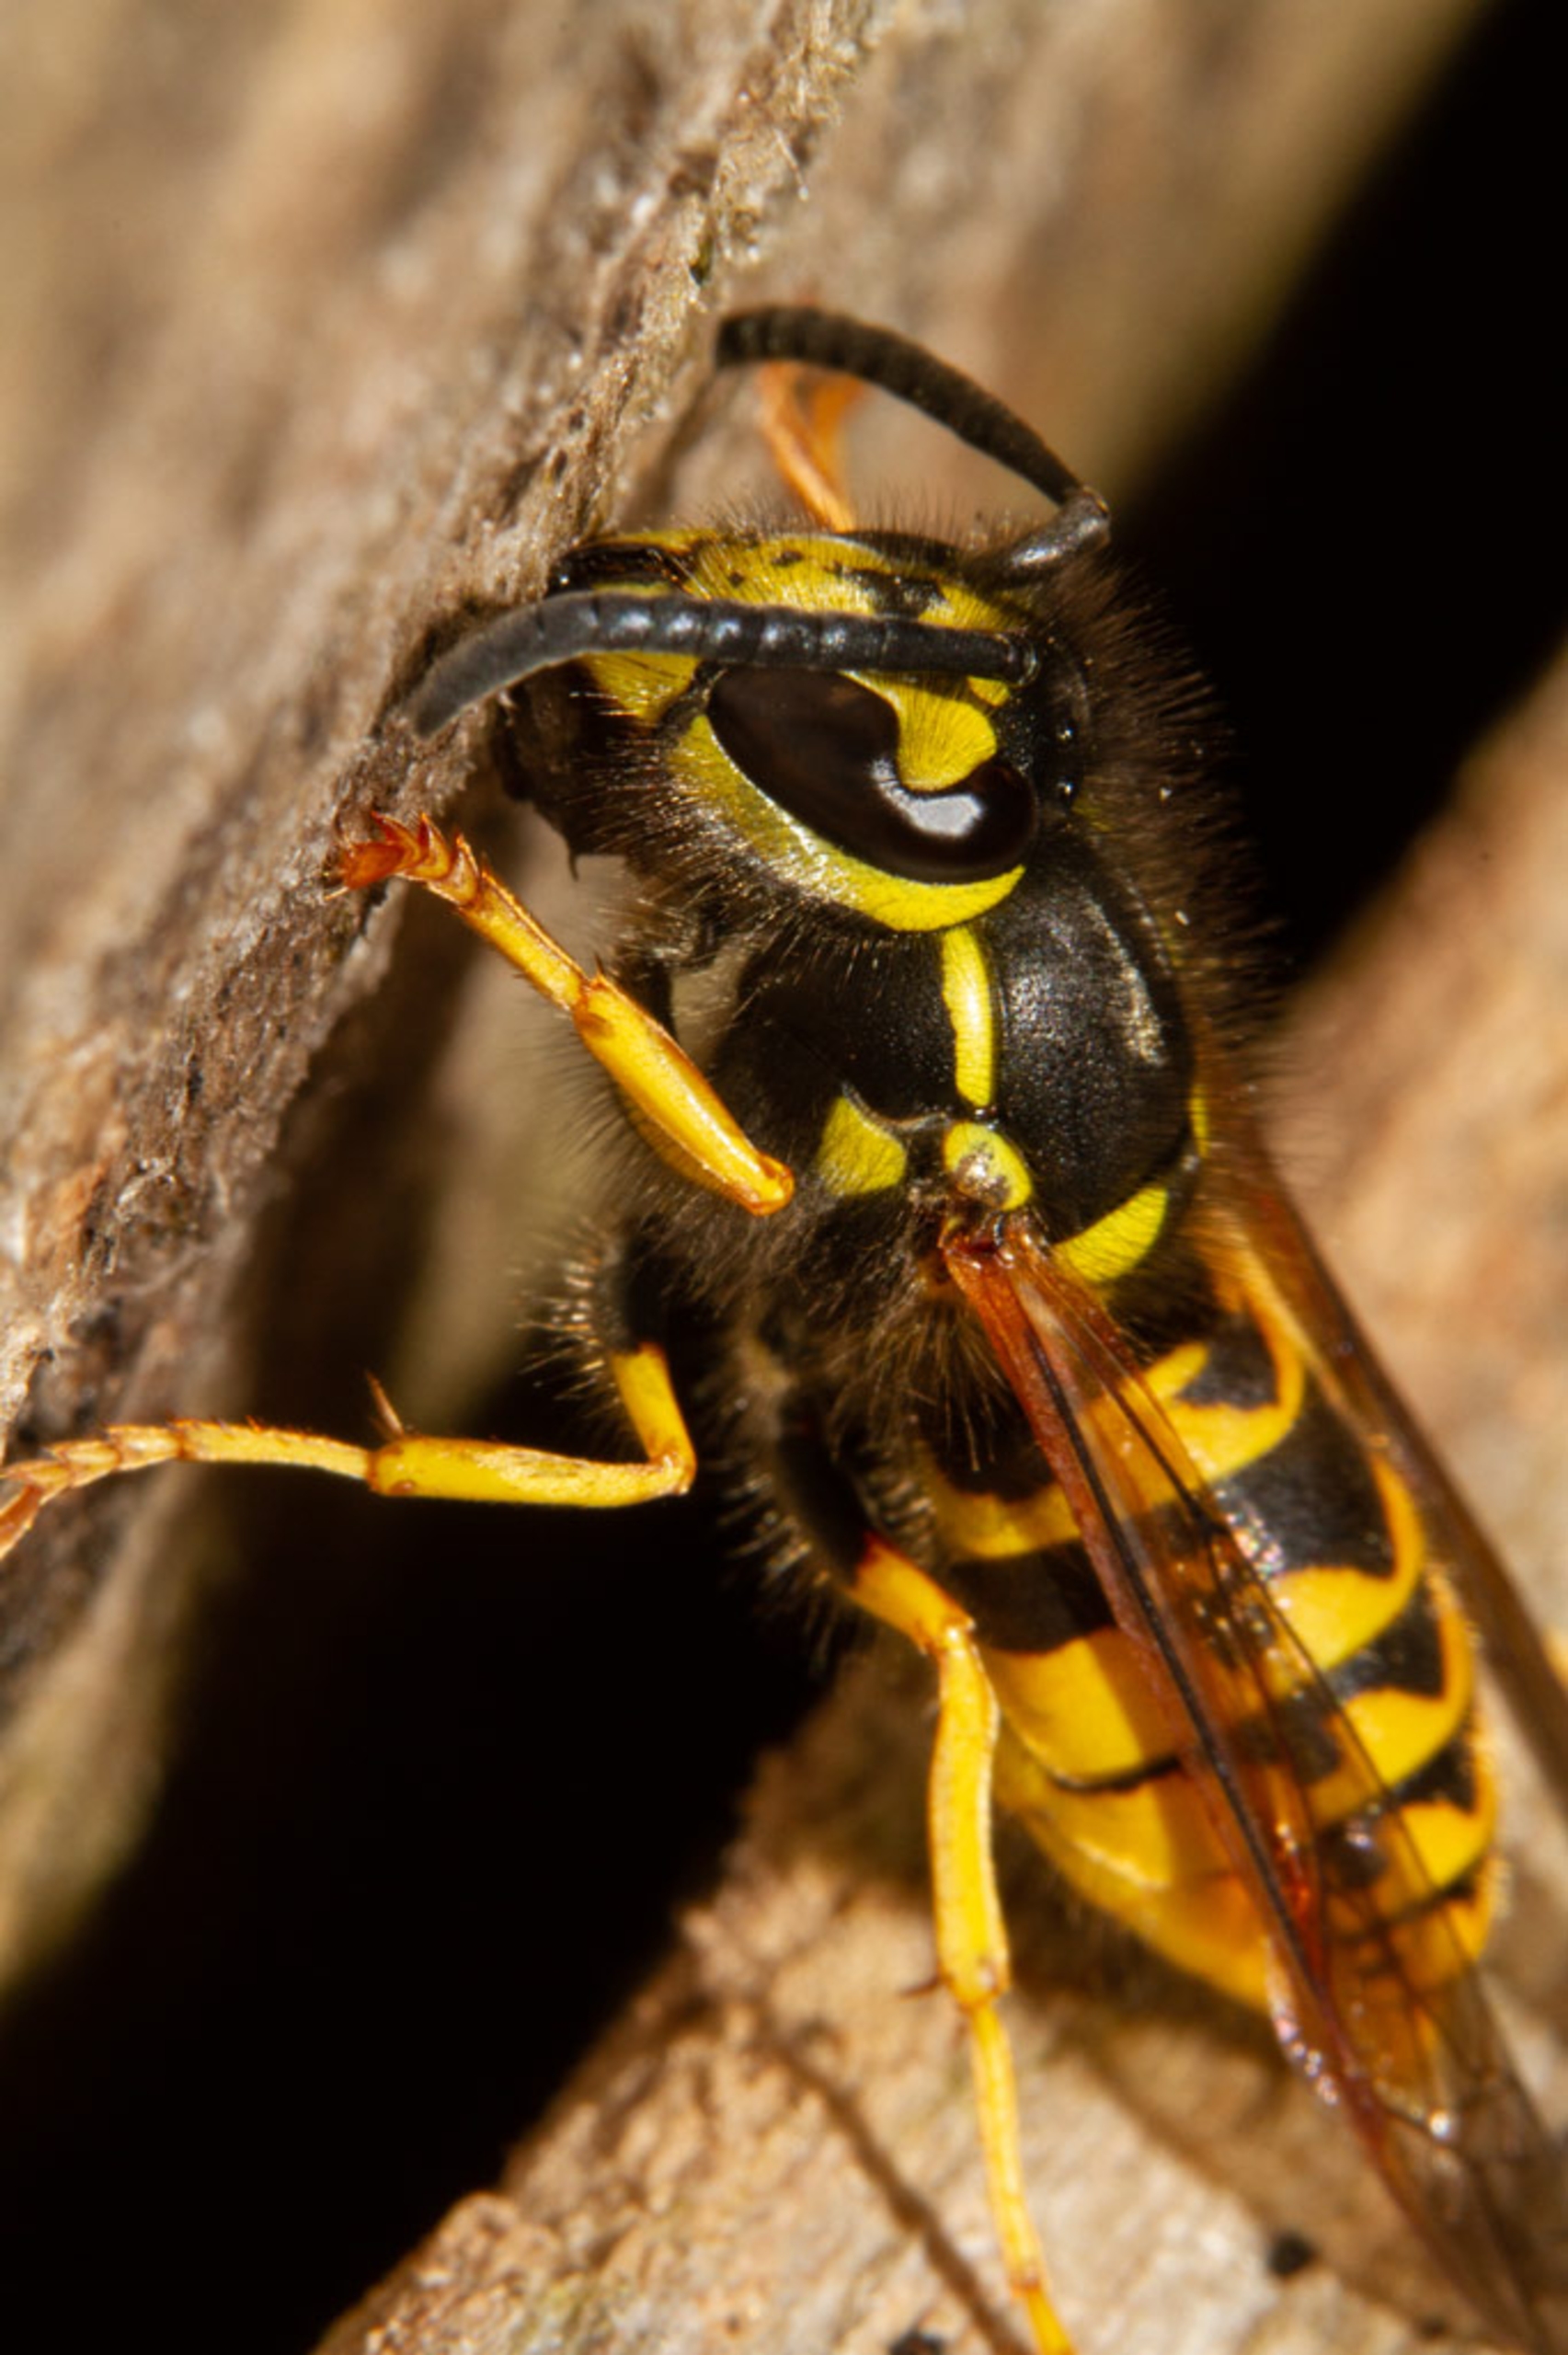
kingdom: Animalia
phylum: Arthropoda
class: Insecta
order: Hymenoptera
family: Vespidae
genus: Vespula
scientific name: Vespula germanica
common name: Tysk gedehams
